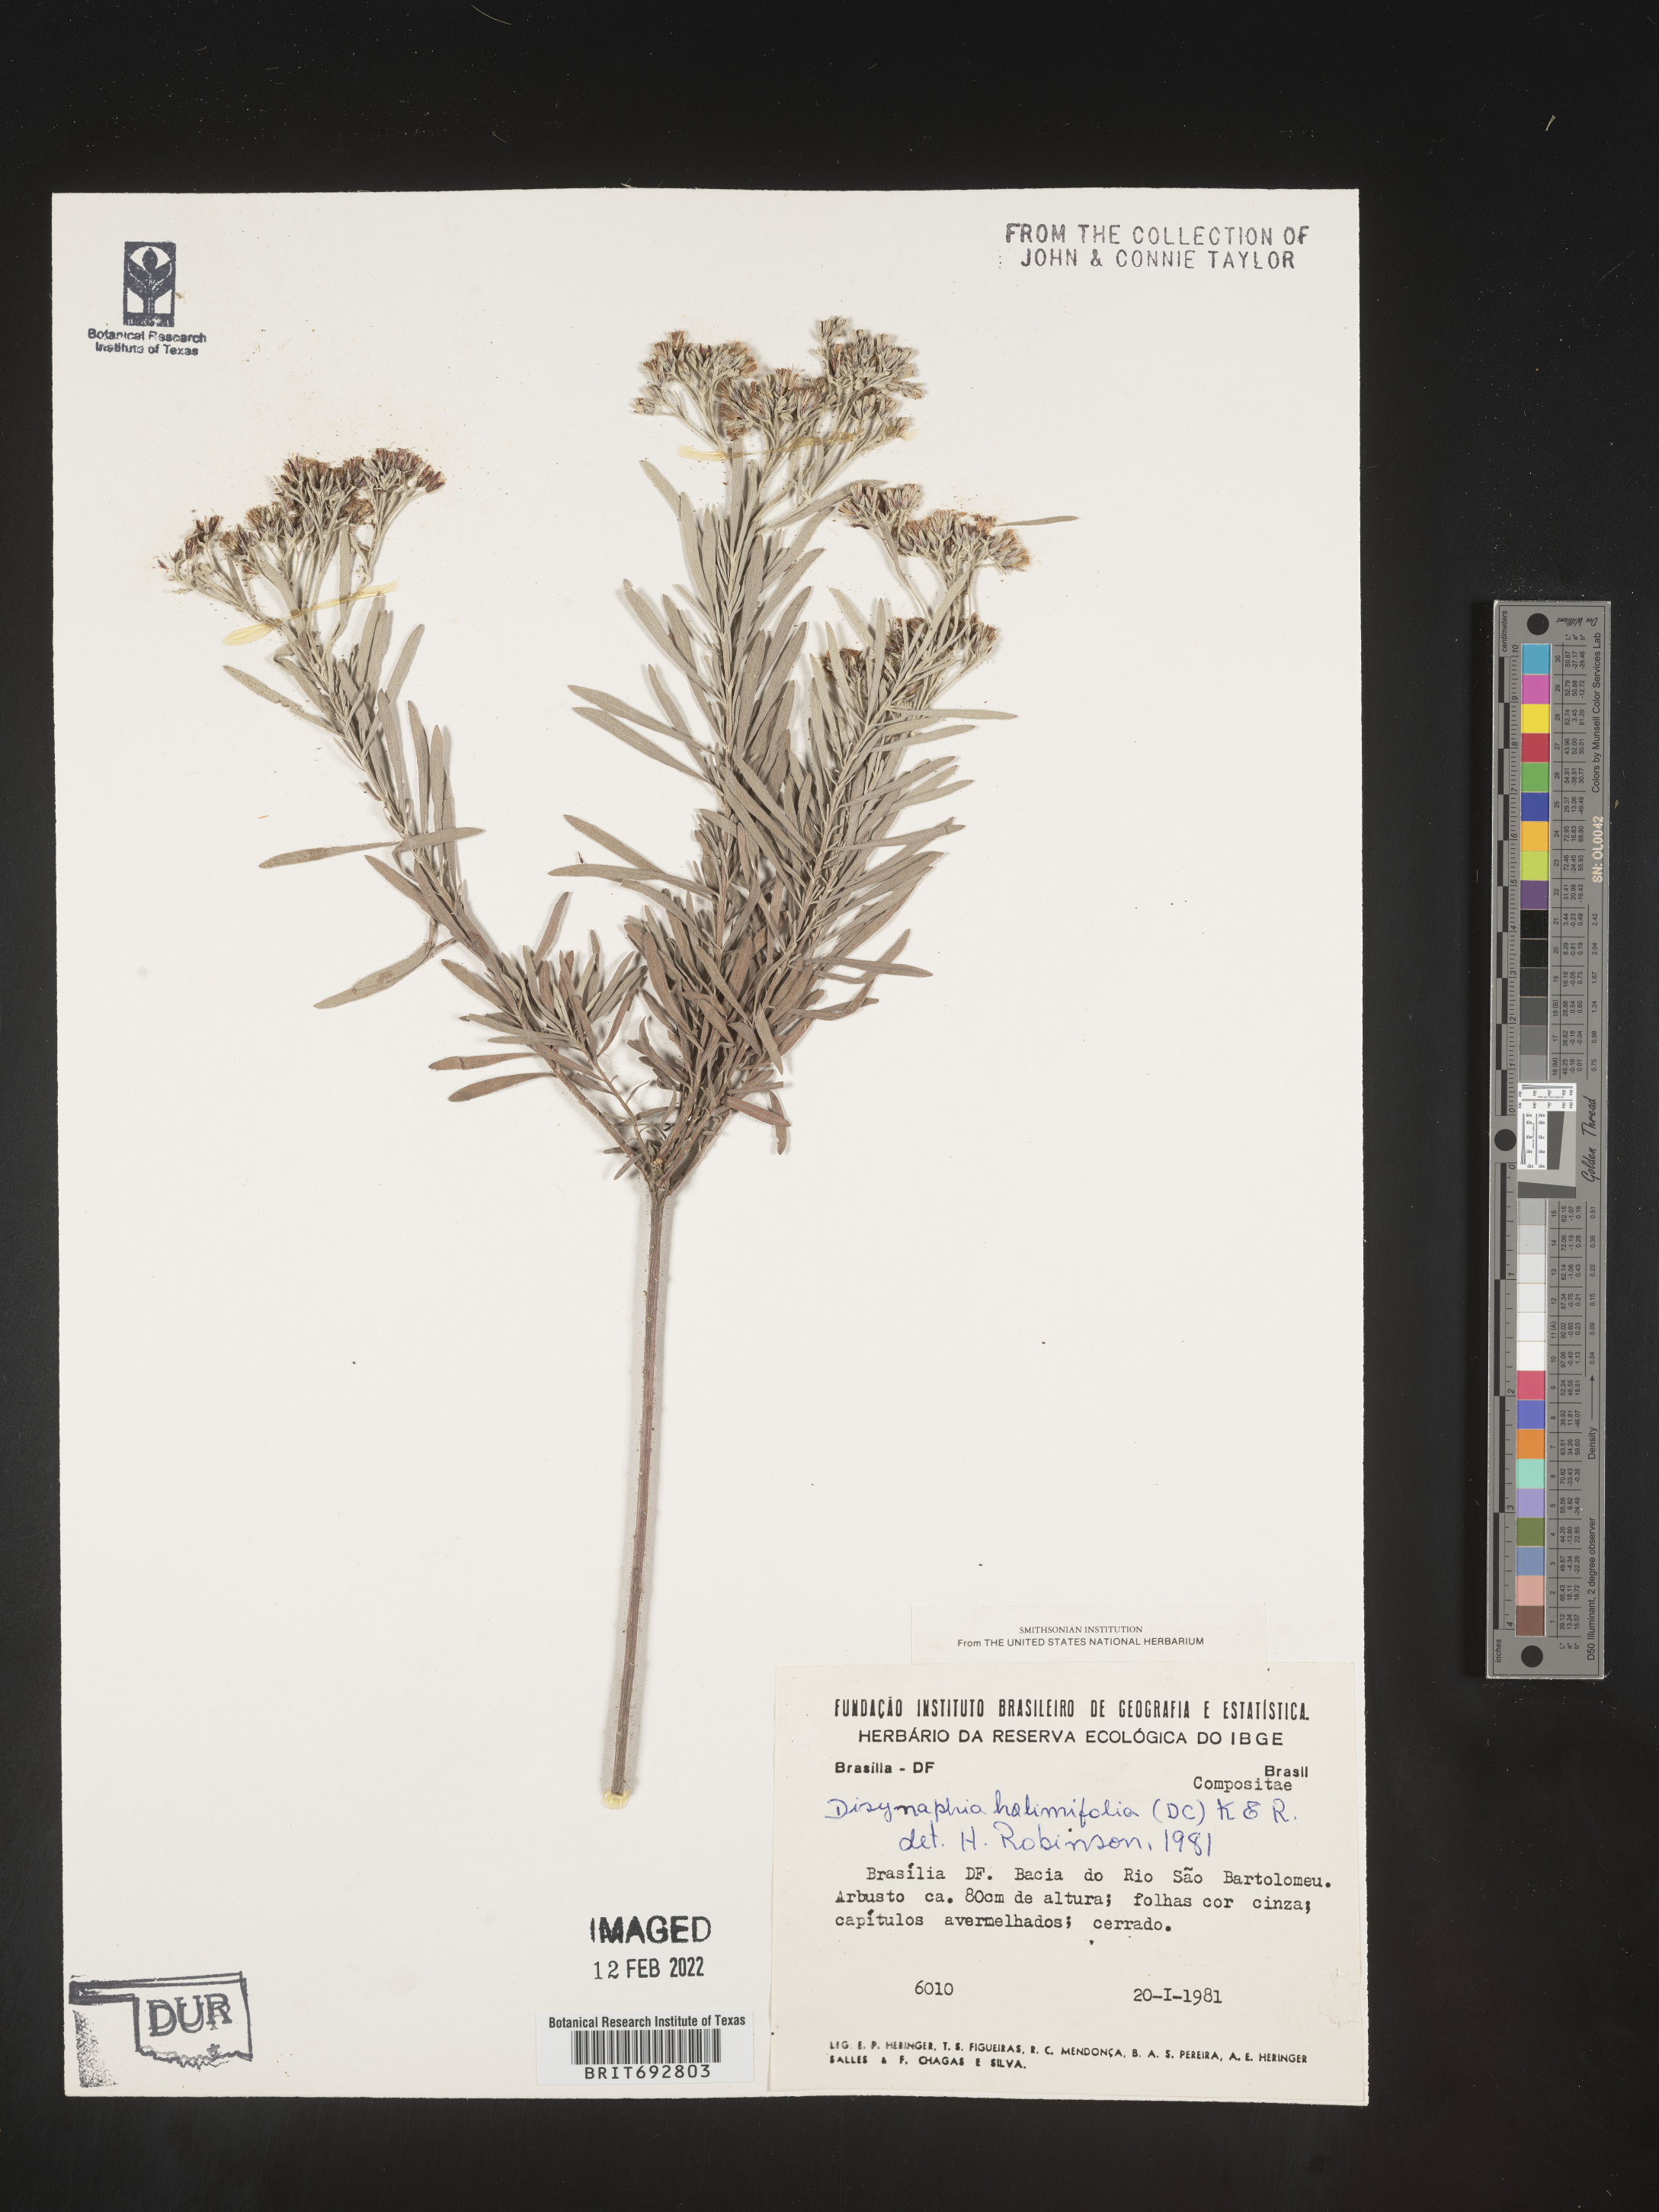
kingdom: Plantae
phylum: Tracheophyta
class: Magnoliopsida
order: Asterales
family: Asteraceae
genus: Disynaphia
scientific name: Disynaphia
